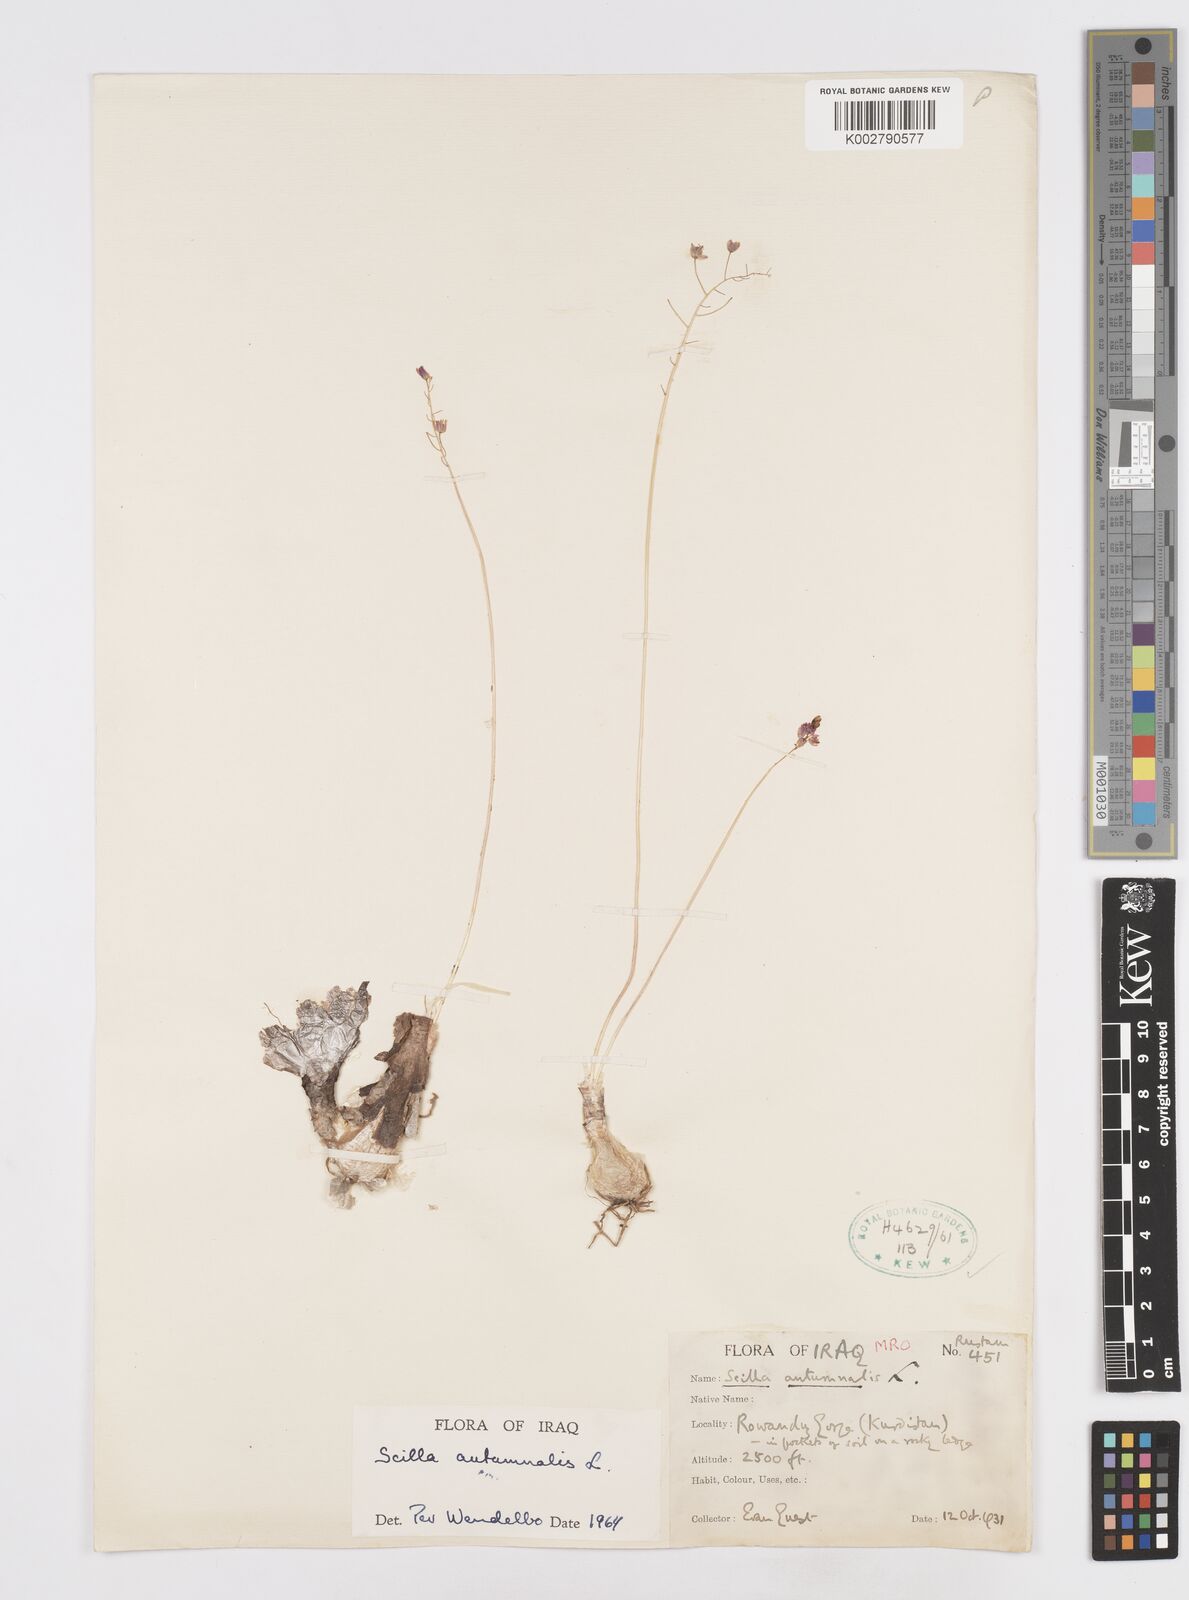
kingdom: Plantae
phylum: Tracheophyta
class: Liliopsida
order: Asparagales
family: Asparagaceae
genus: Prospero
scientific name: Prospero autumnale
